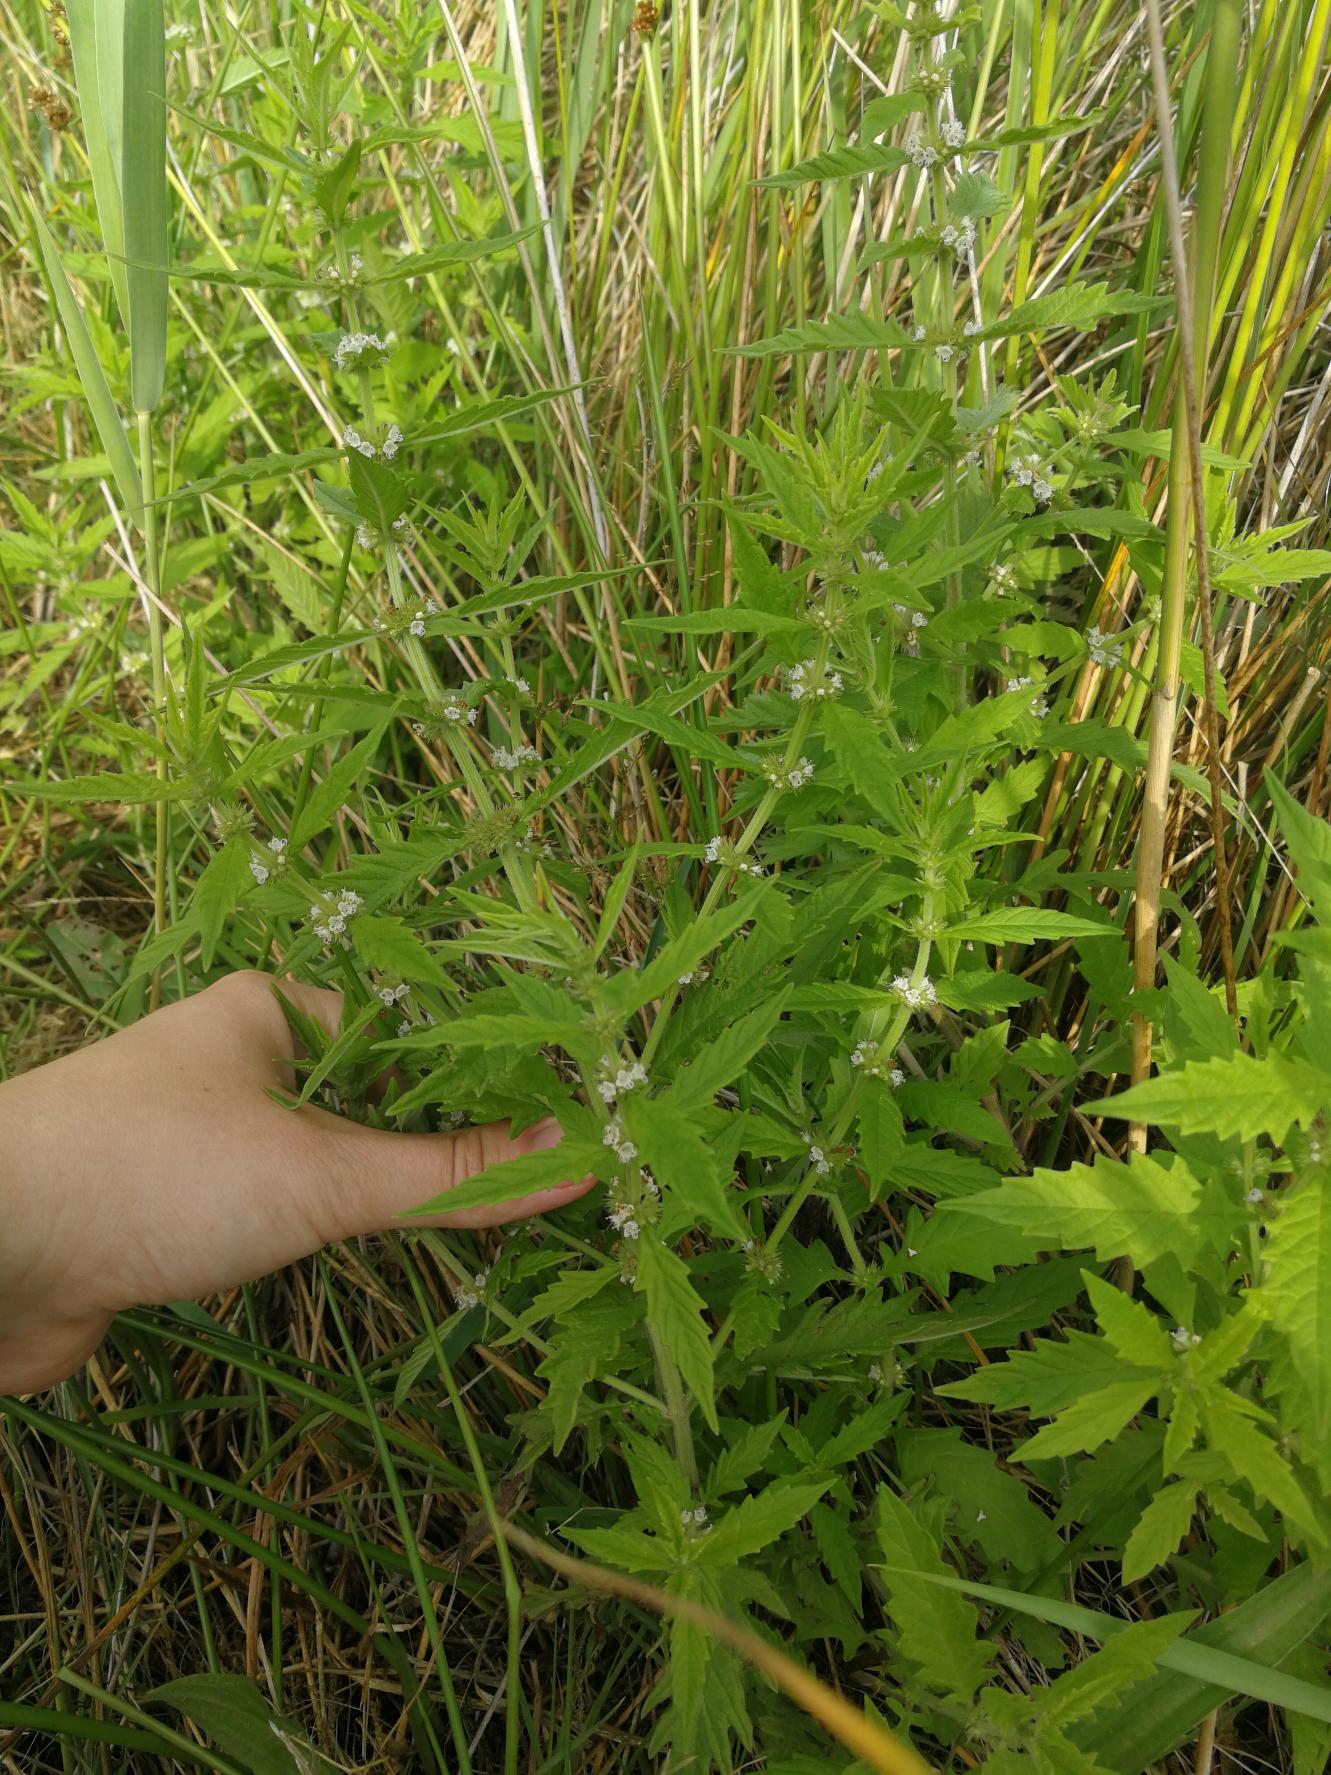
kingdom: Plantae
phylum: Tracheophyta
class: Magnoliopsida
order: Lamiales
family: Lamiaceae
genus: Lycopus
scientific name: Lycopus europaeus
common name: Sværtevæld
